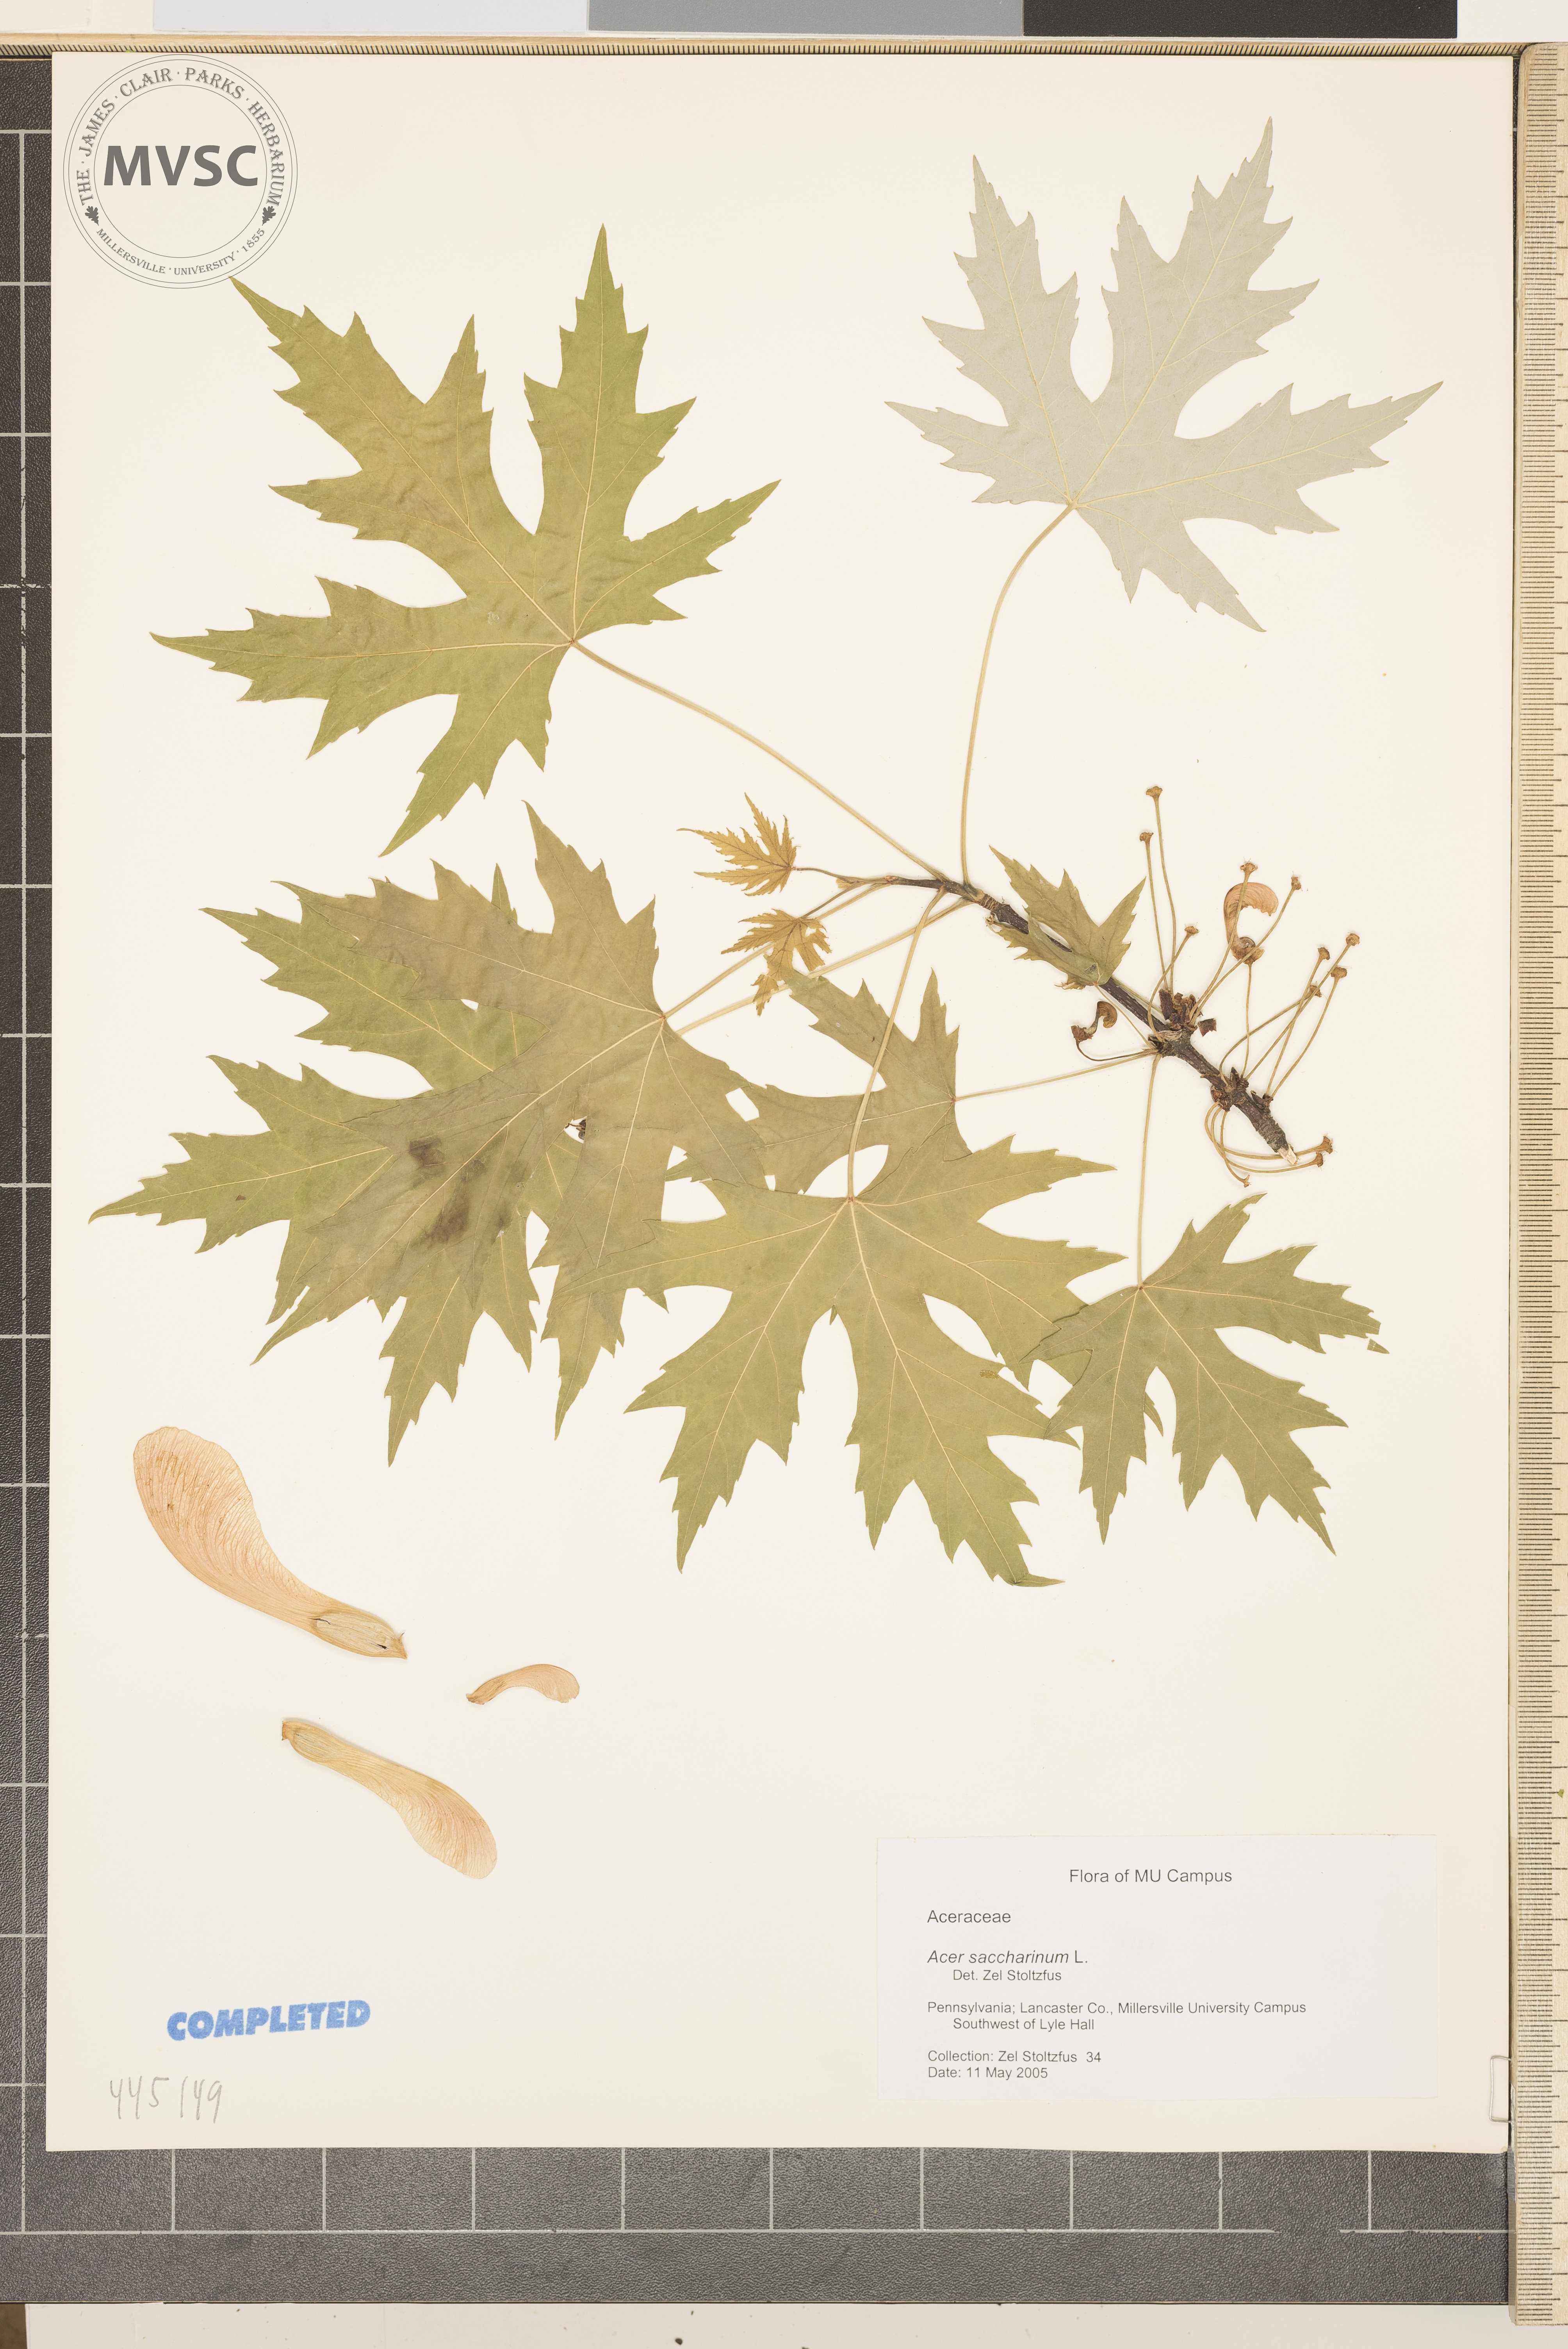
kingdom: Plantae
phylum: Tracheophyta
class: Magnoliopsida
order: Sapindales
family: Sapindaceae
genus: Acer
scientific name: Acer saccharinum
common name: Silver maple
